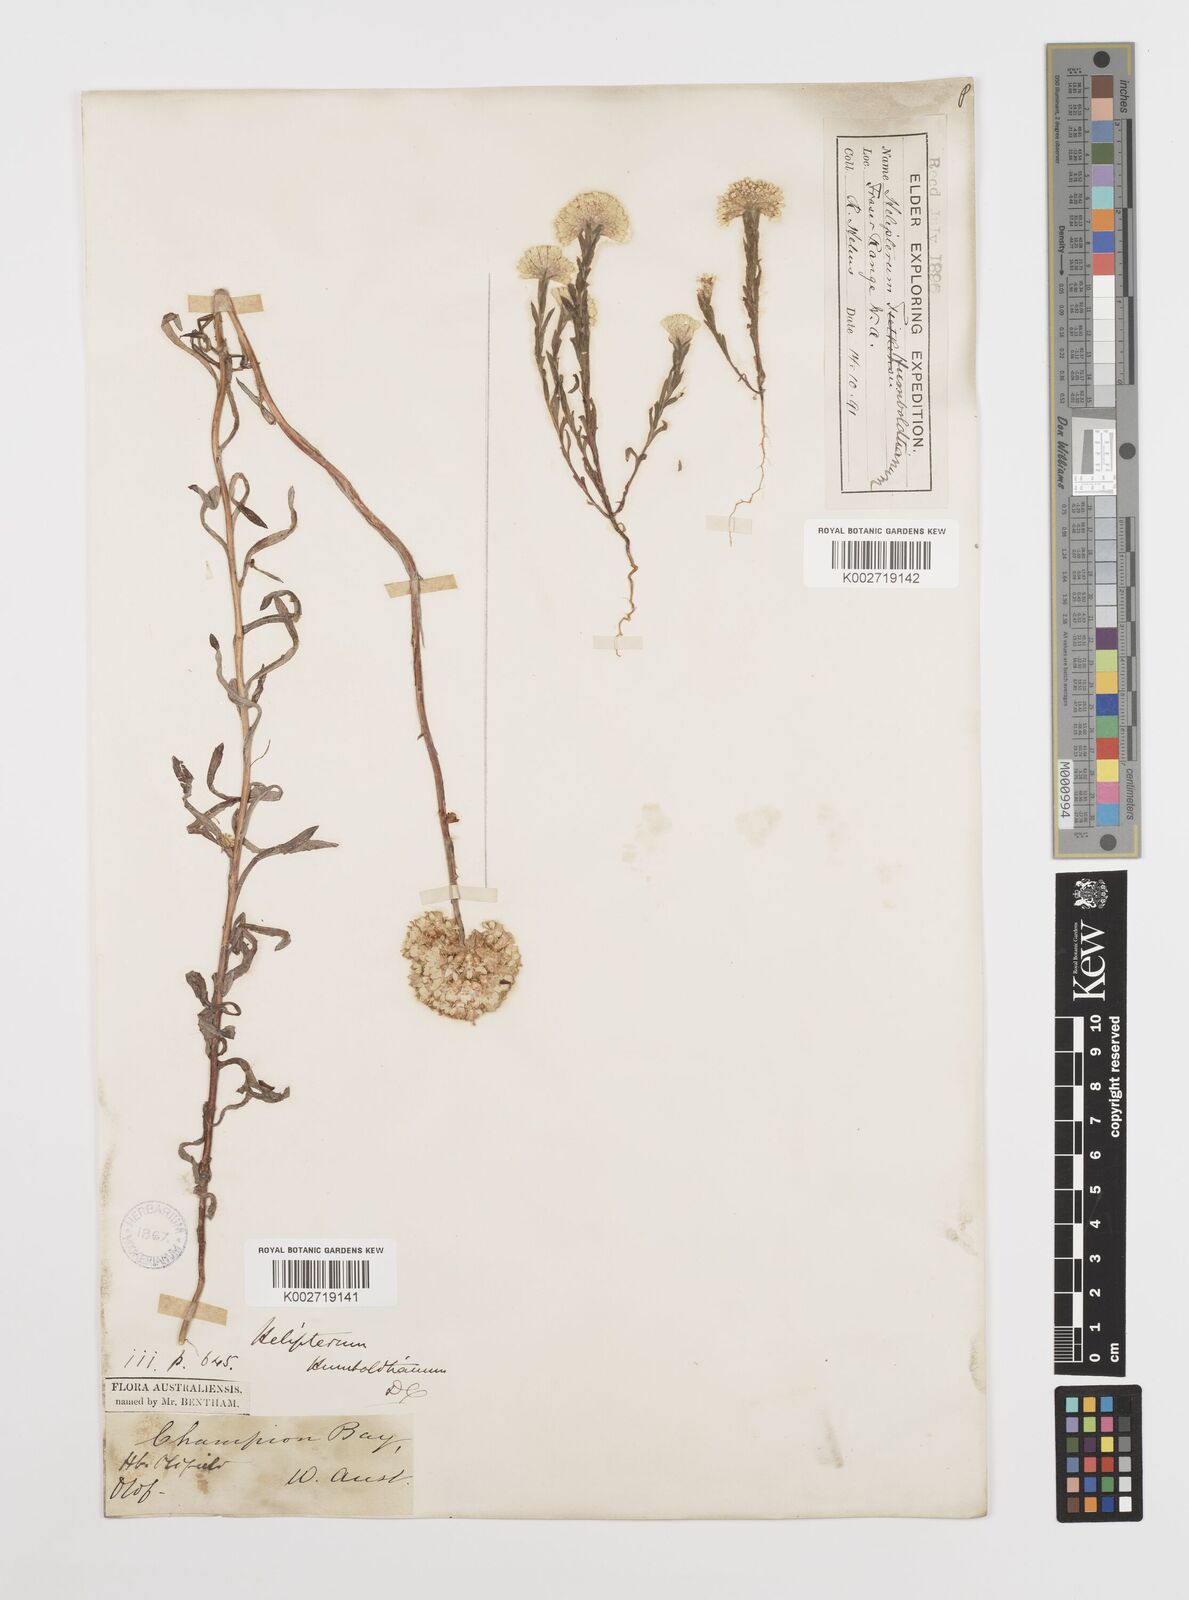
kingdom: Plantae
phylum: Tracheophyta
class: Magnoliopsida
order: Asterales
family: Asteraceae
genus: Rhodanthe
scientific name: Rhodanthe humboldtiana
